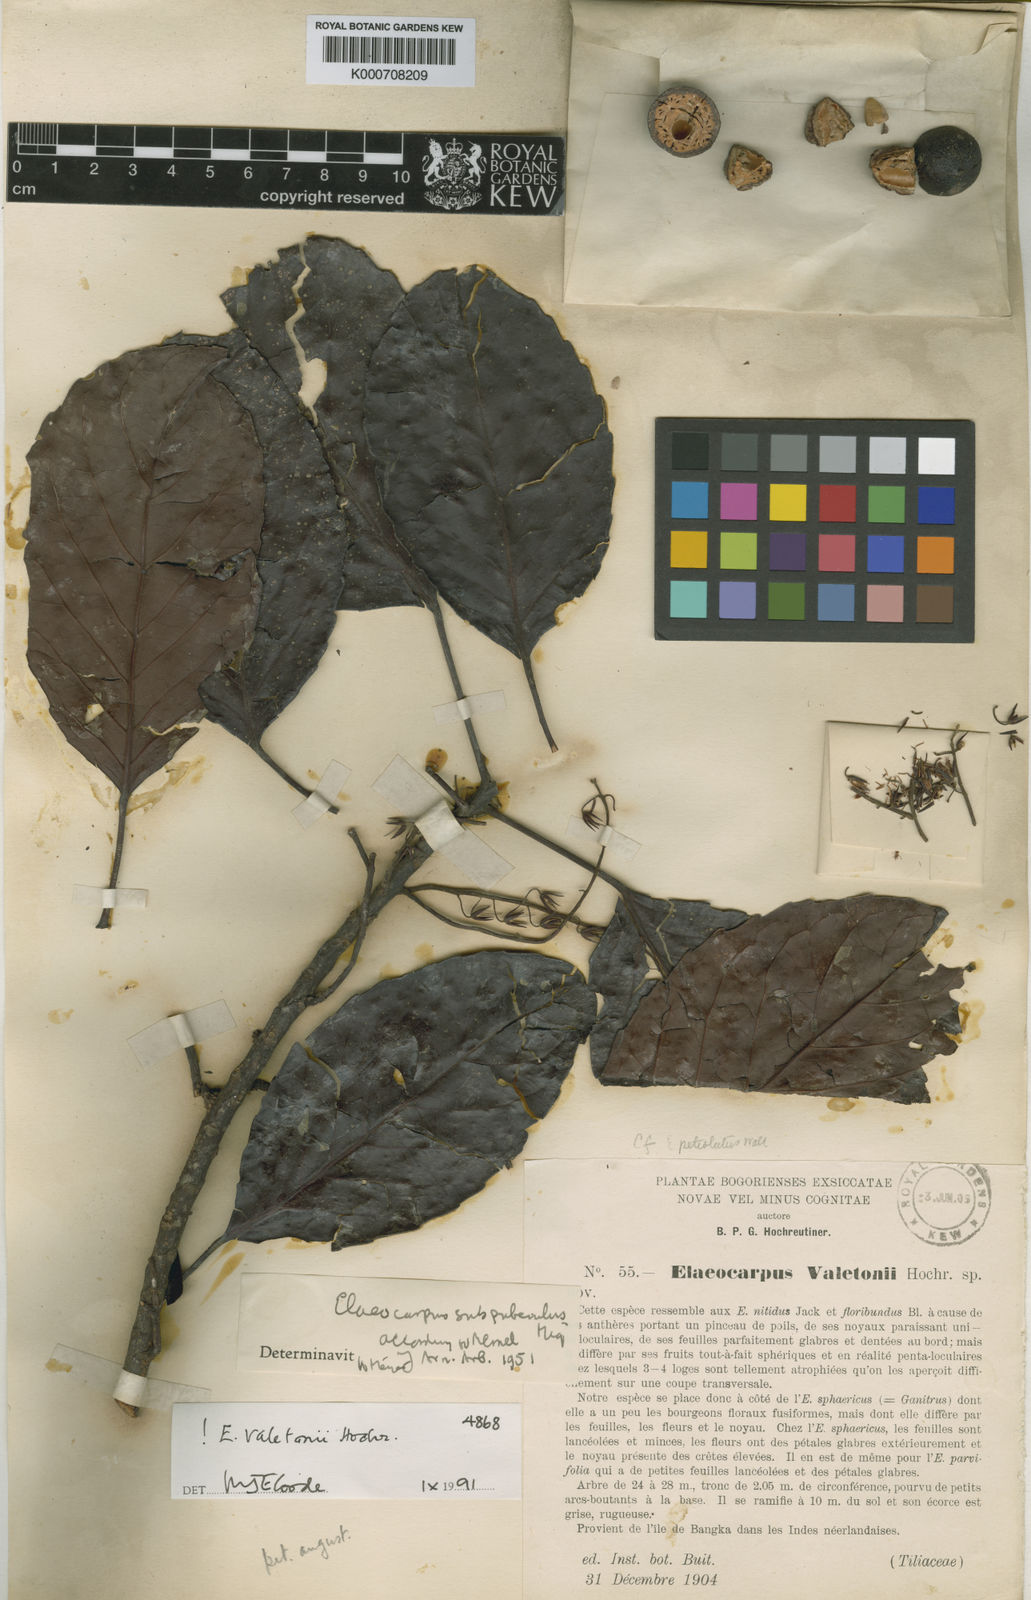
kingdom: Plantae
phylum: Tracheophyta
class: Magnoliopsida
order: Oxalidales
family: Elaeocarpaceae
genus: Elaeocarpus
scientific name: Elaeocarpus valetonii
